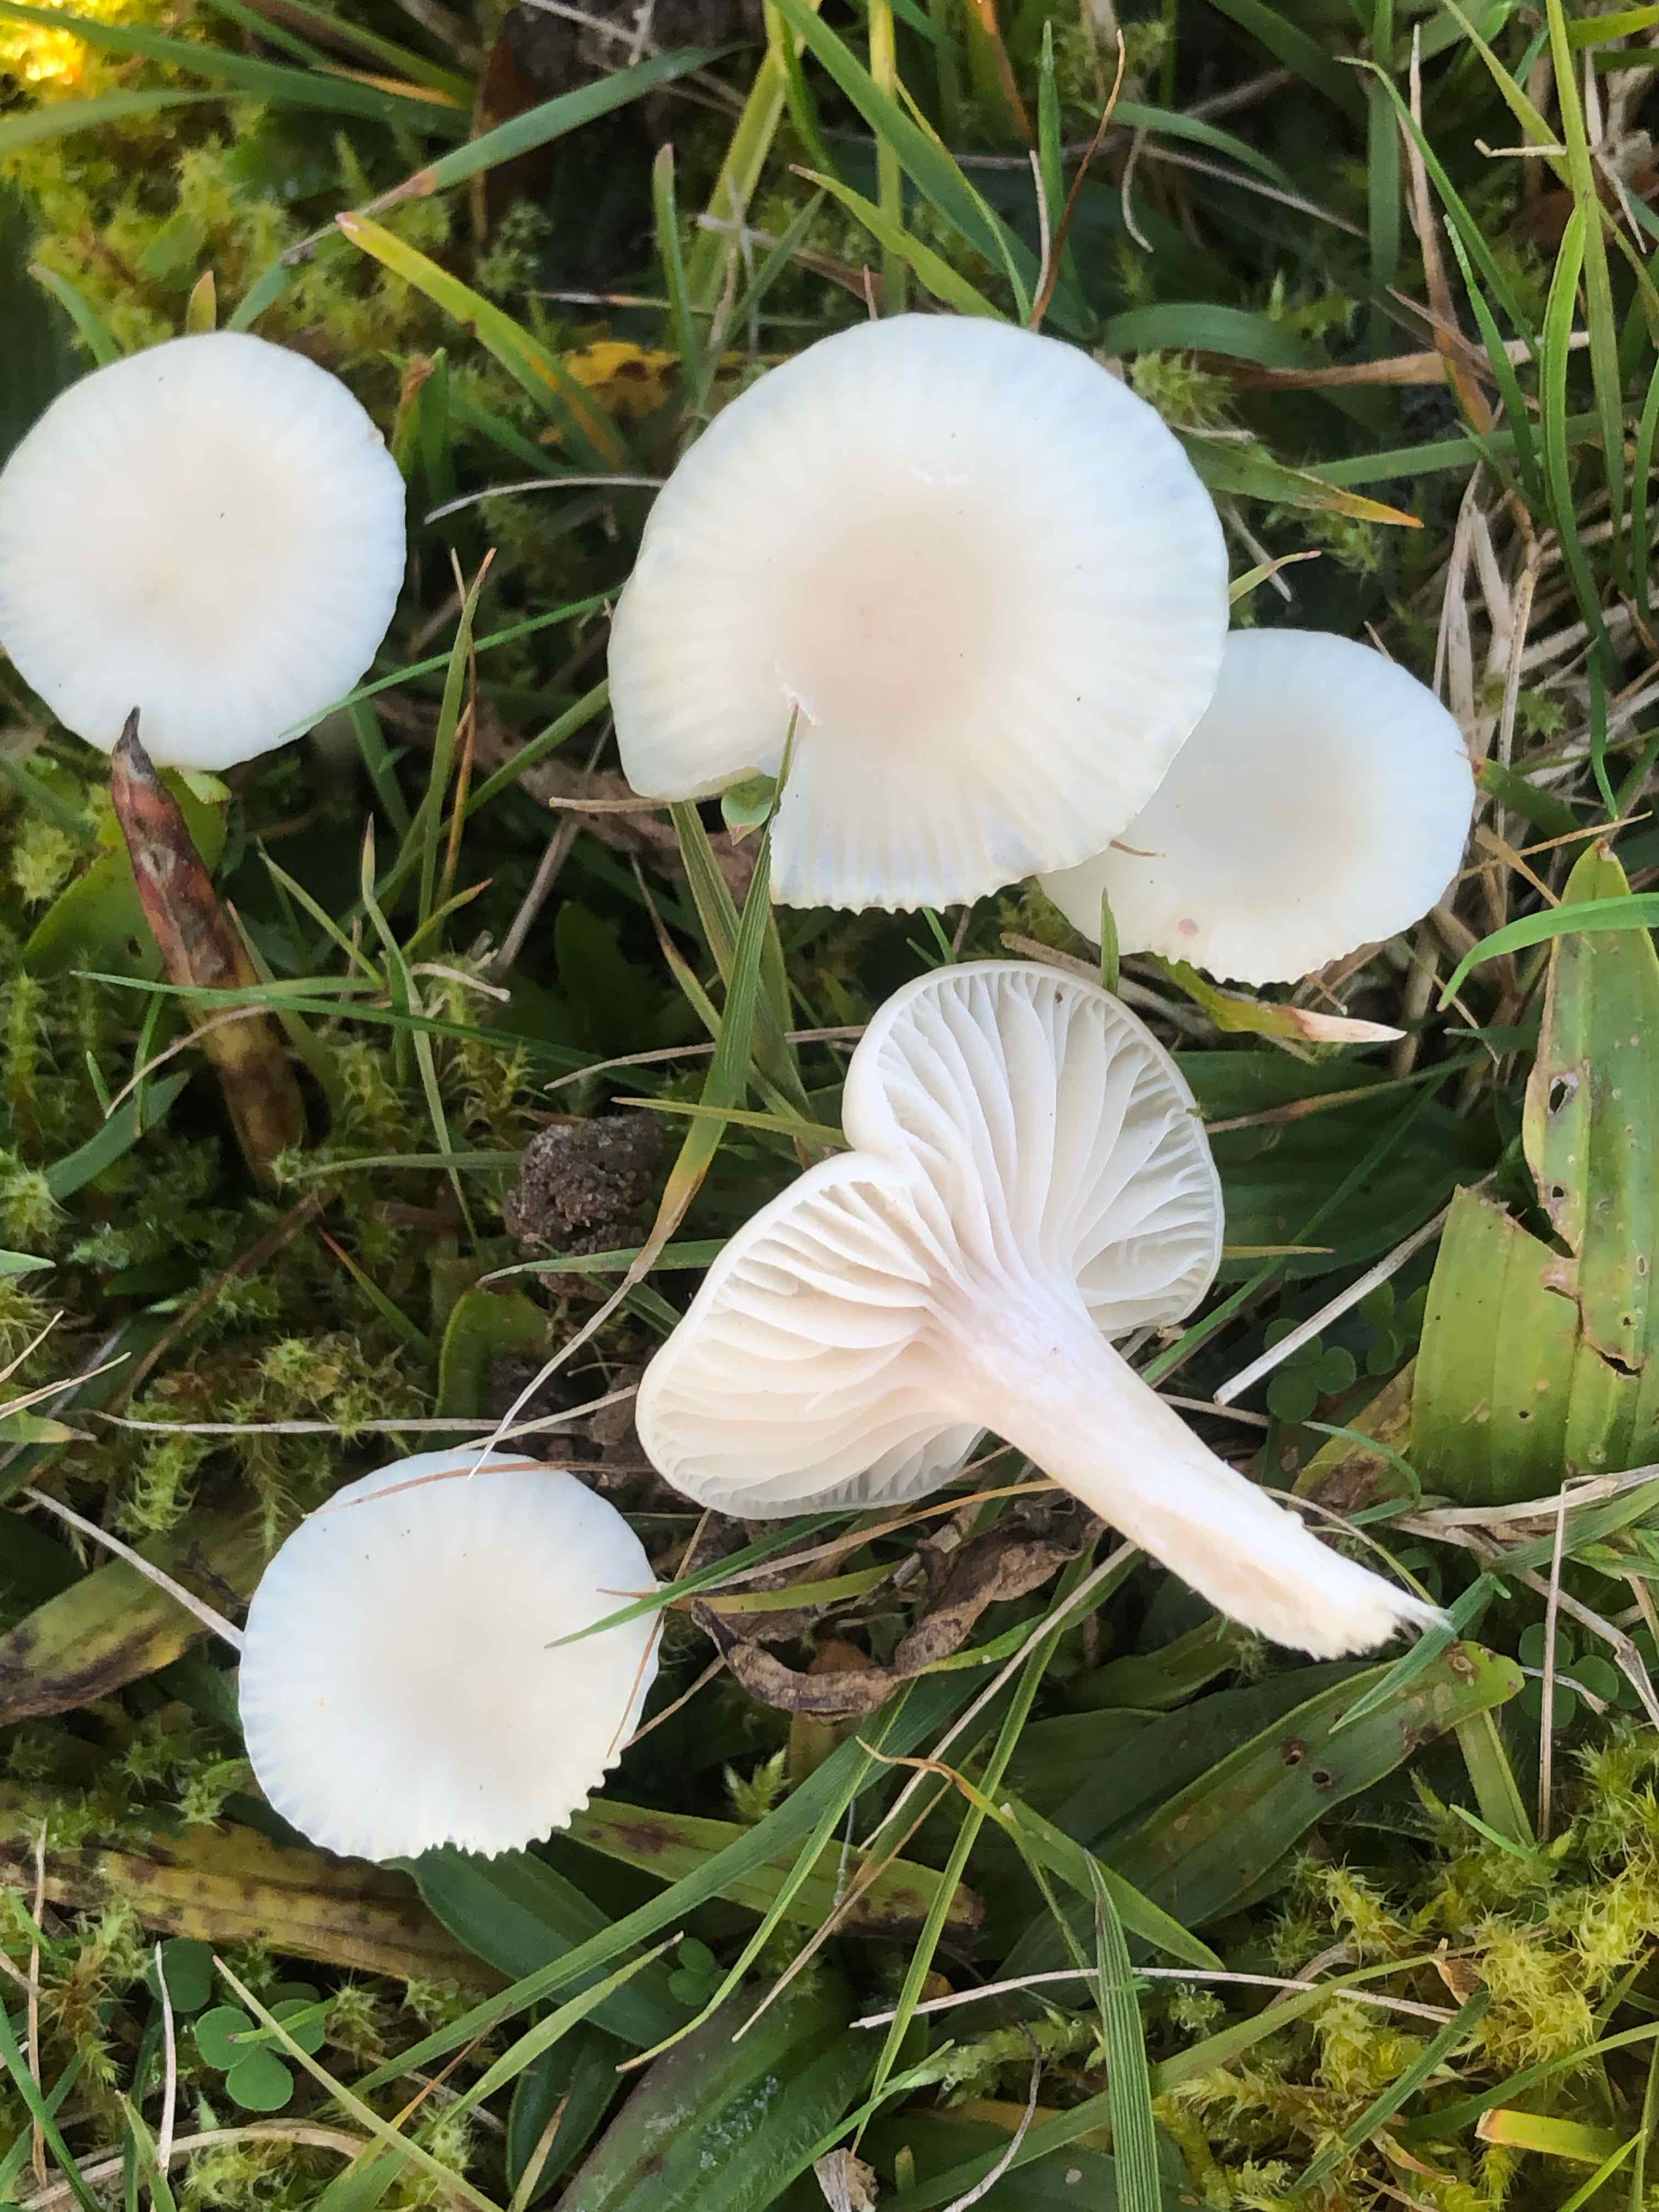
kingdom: Fungi
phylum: Basidiomycota
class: Agaricomycetes
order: Agaricales
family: Hygrophoraceae
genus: Cuphophyllus
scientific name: Cuphophyllus virgineus
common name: snehvid vokshat
